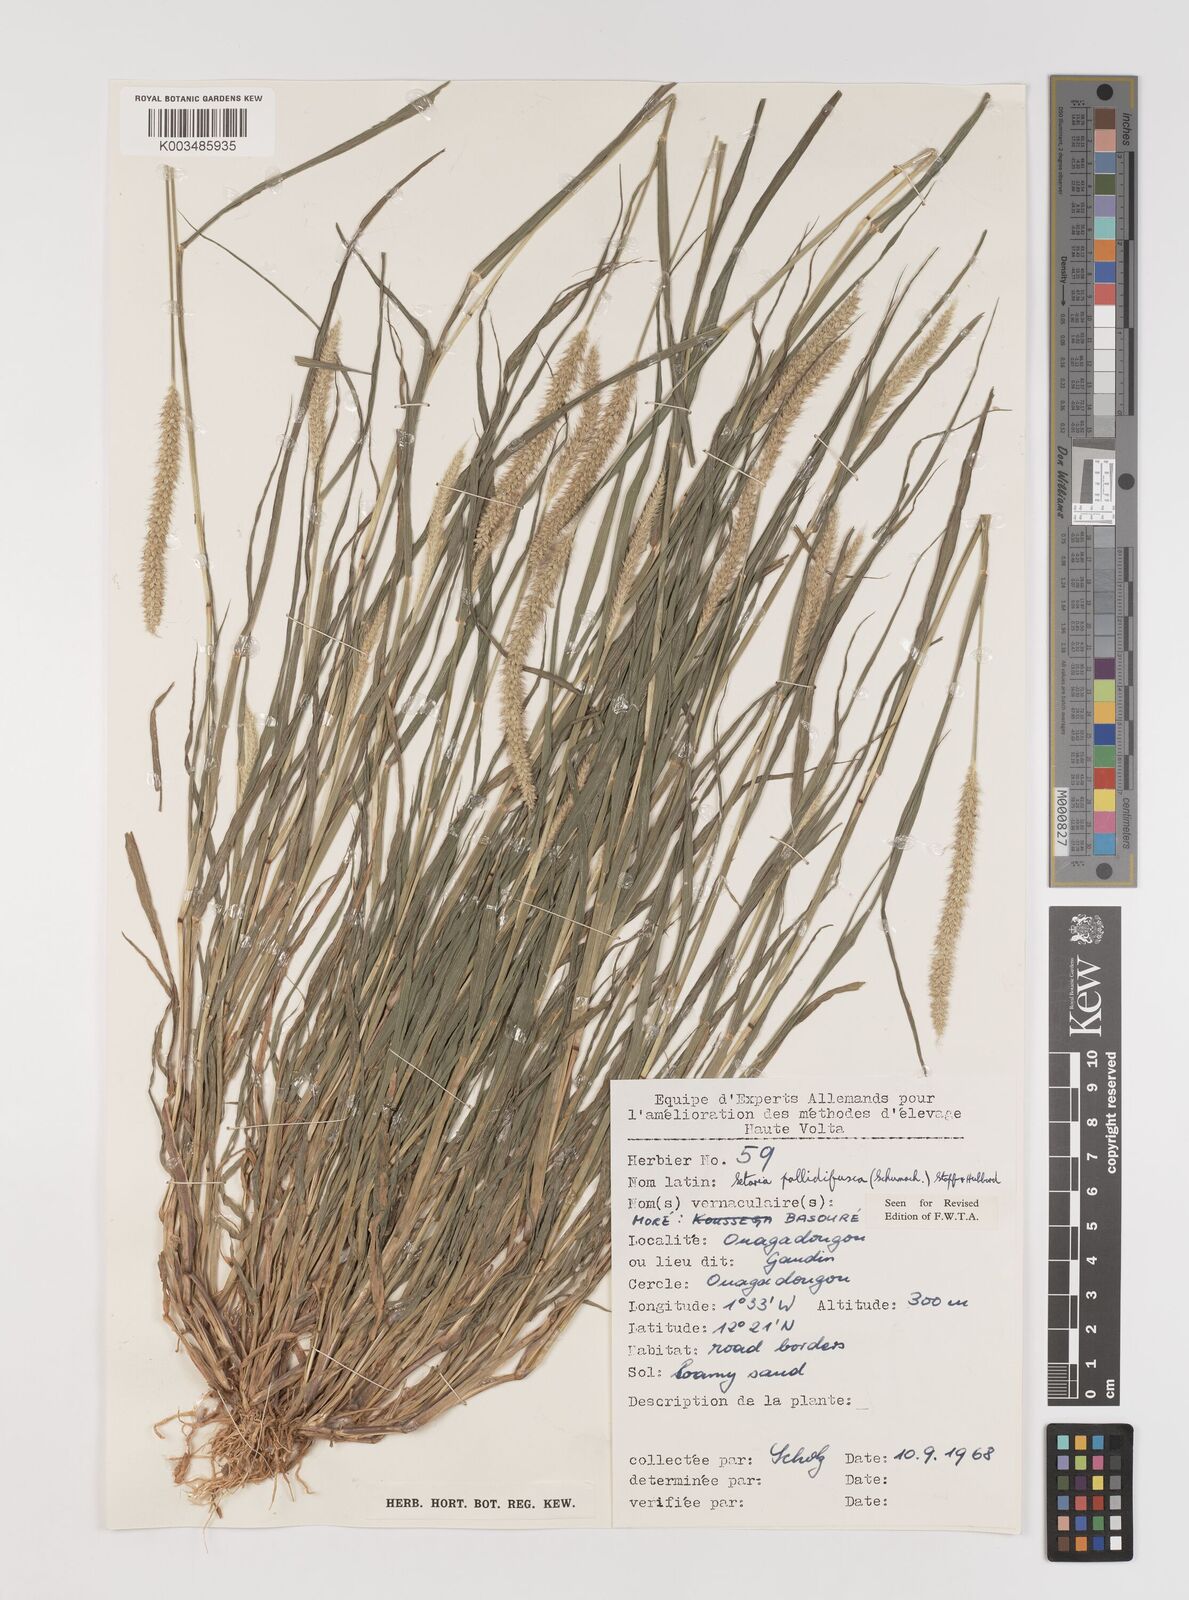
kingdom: Plantae
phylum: Tracheophyta
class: Liliopsida
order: Poales
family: Poaceae
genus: Setaria
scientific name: Setaria pumila
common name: Yellow bristle-grass
